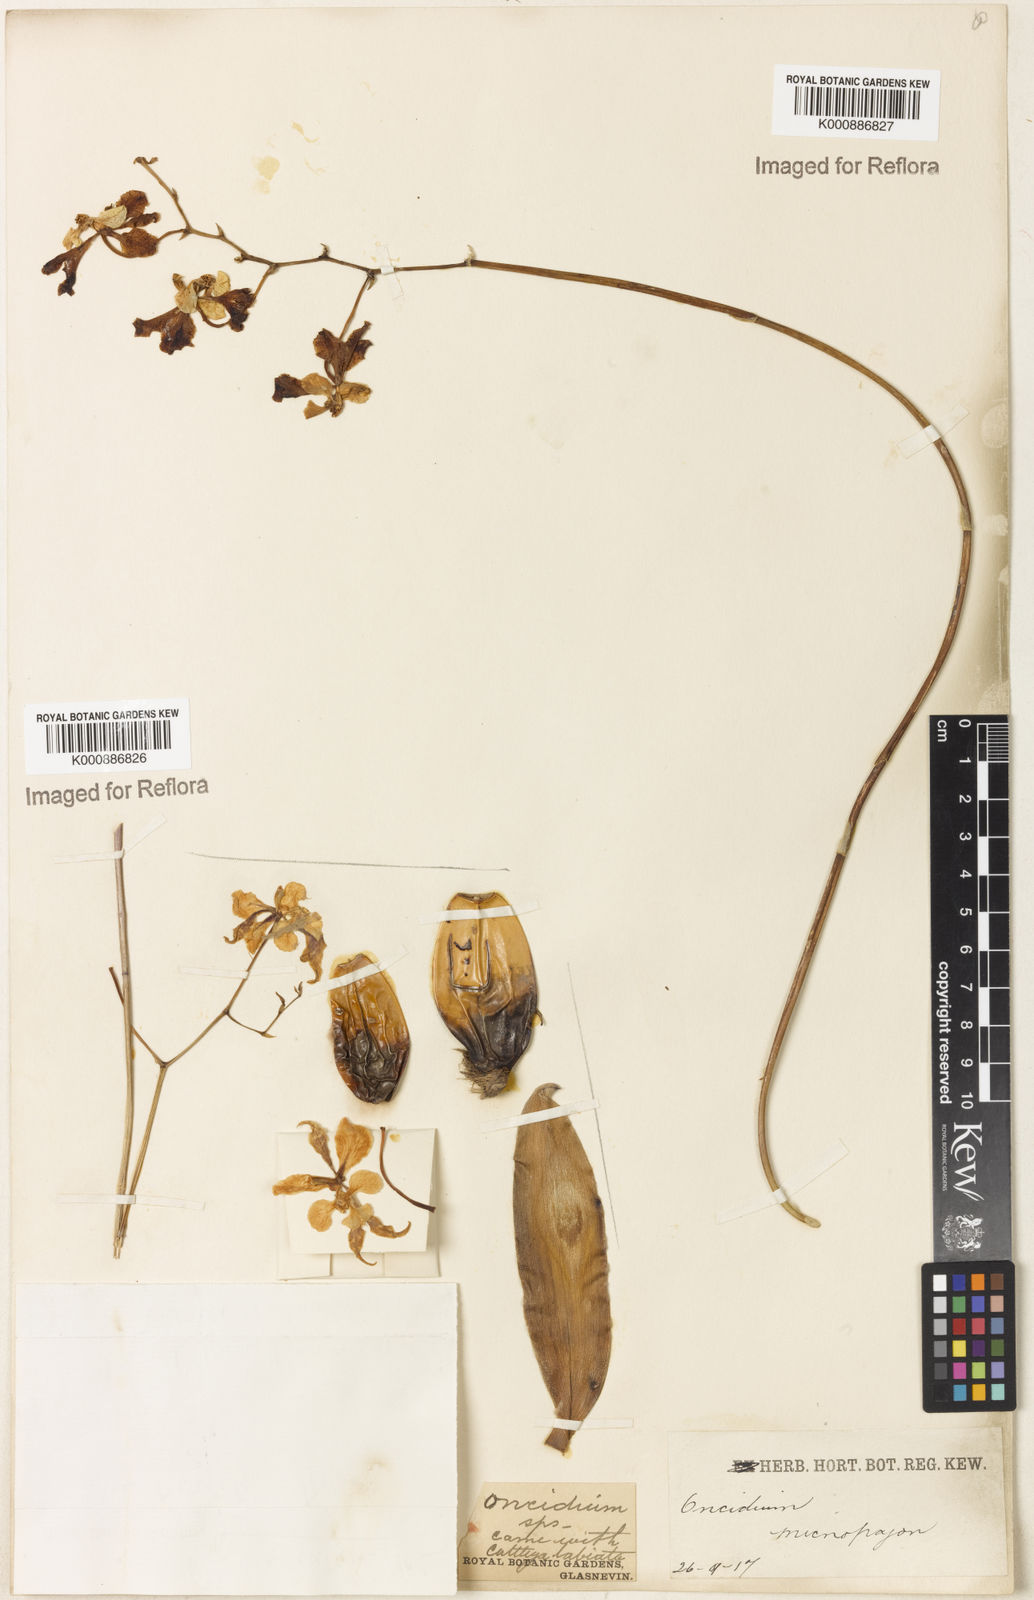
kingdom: Plantae
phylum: Tracheophyta
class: Liliopsida
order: Asparagales
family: Orchidaceae
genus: Gomesa
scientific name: Gomesa ciliata
